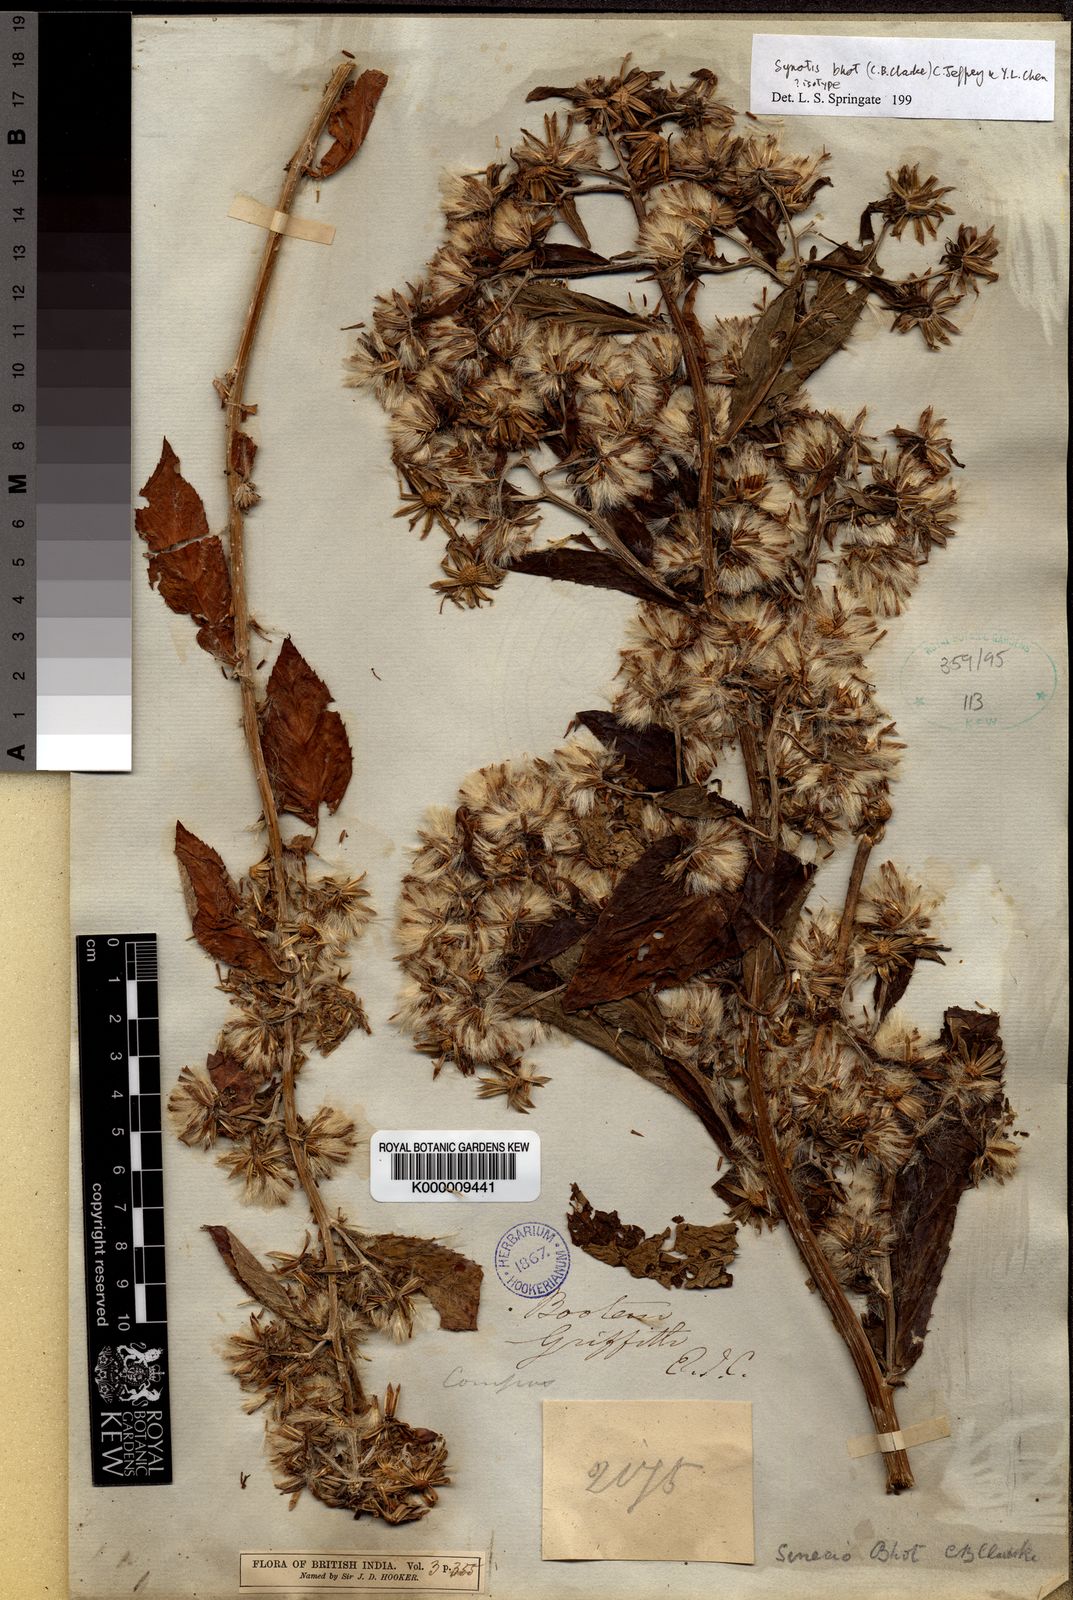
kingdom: Plantae
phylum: Tracheophyta
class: Magnoliopsida
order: Asterales
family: Asteraceae
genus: Synotis
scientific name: Synotis bhot
